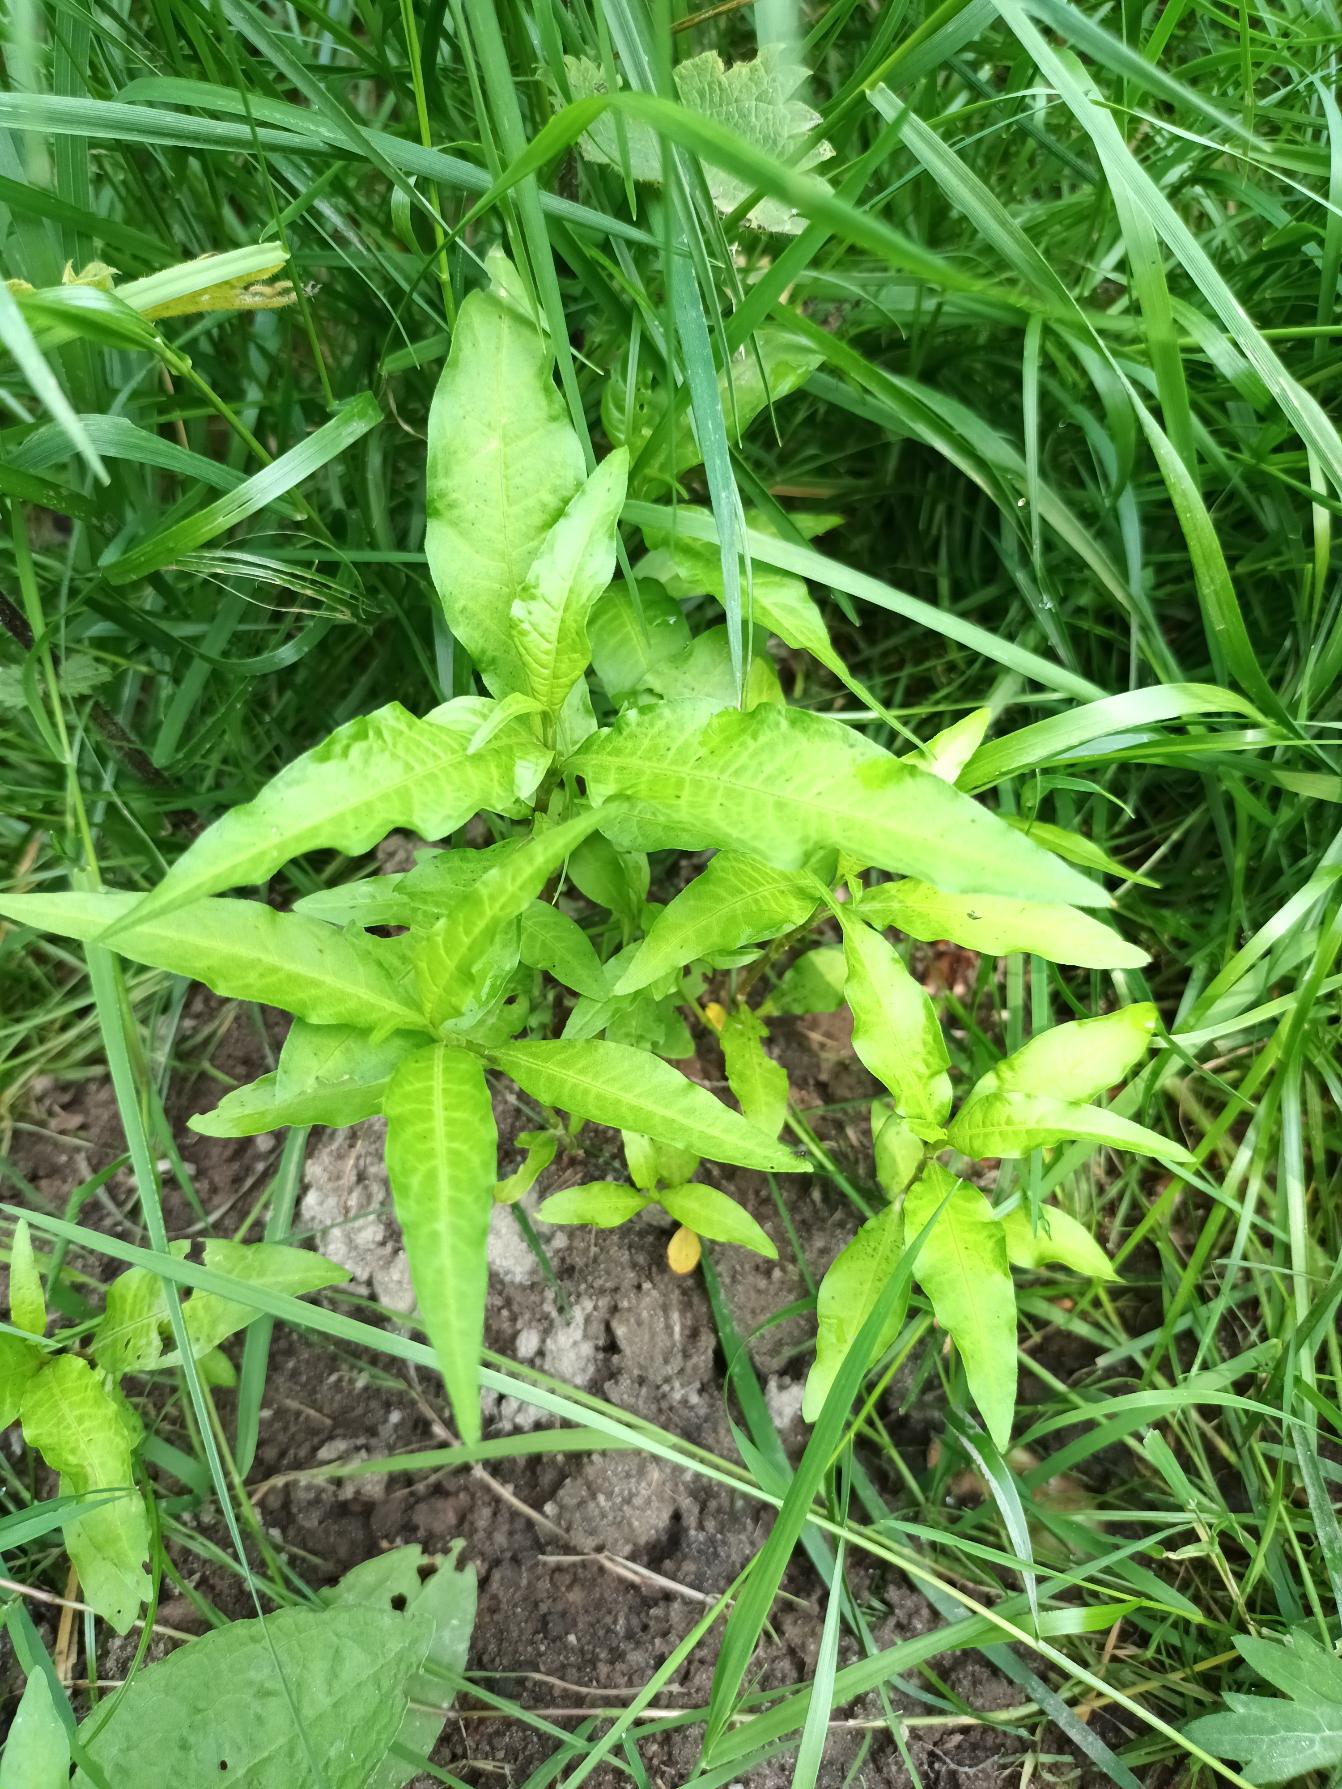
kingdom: Plantae
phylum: Tracheophyta
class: Magnoliopsida
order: Caryophyllales
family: Polygonaceae
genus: Persicaria
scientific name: Persicaria hydropiper
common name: Bidende pileurt
